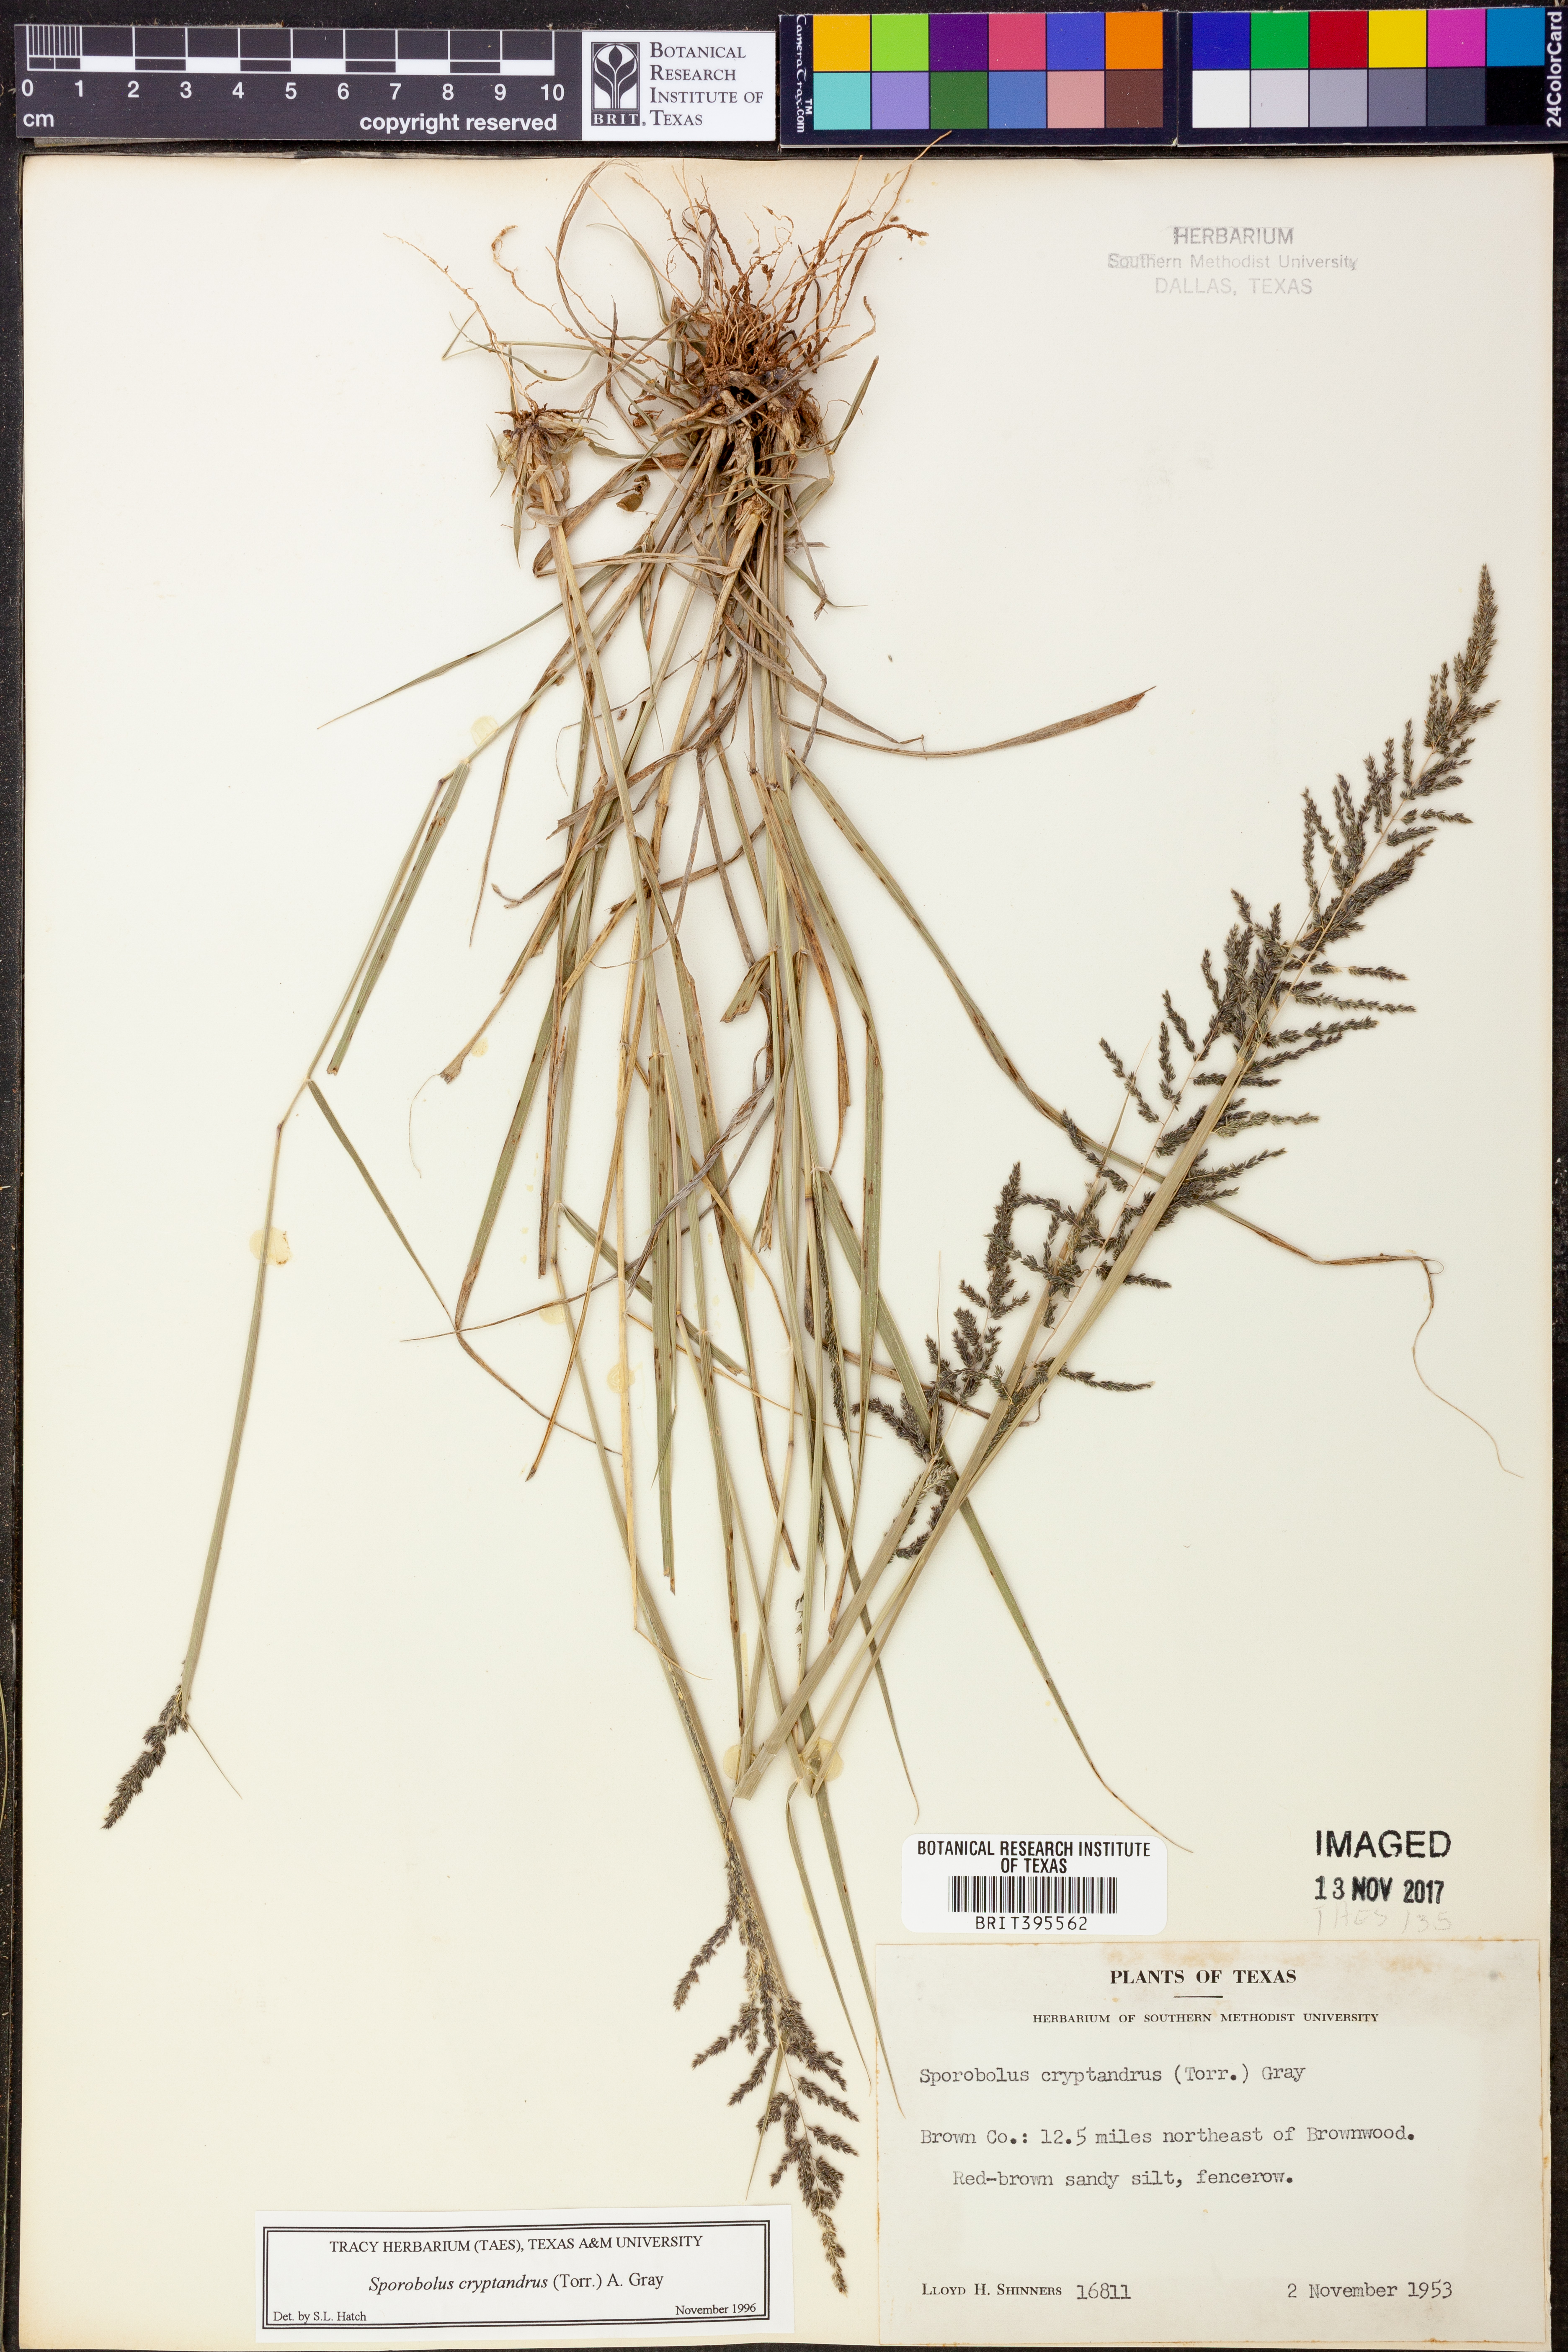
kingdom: Plantae
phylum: Tracheophyta
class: Liliopsida
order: Poales
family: Poaceae
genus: Sporobolus
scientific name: Sporobolus cryptandrus
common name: Sand dropseed
